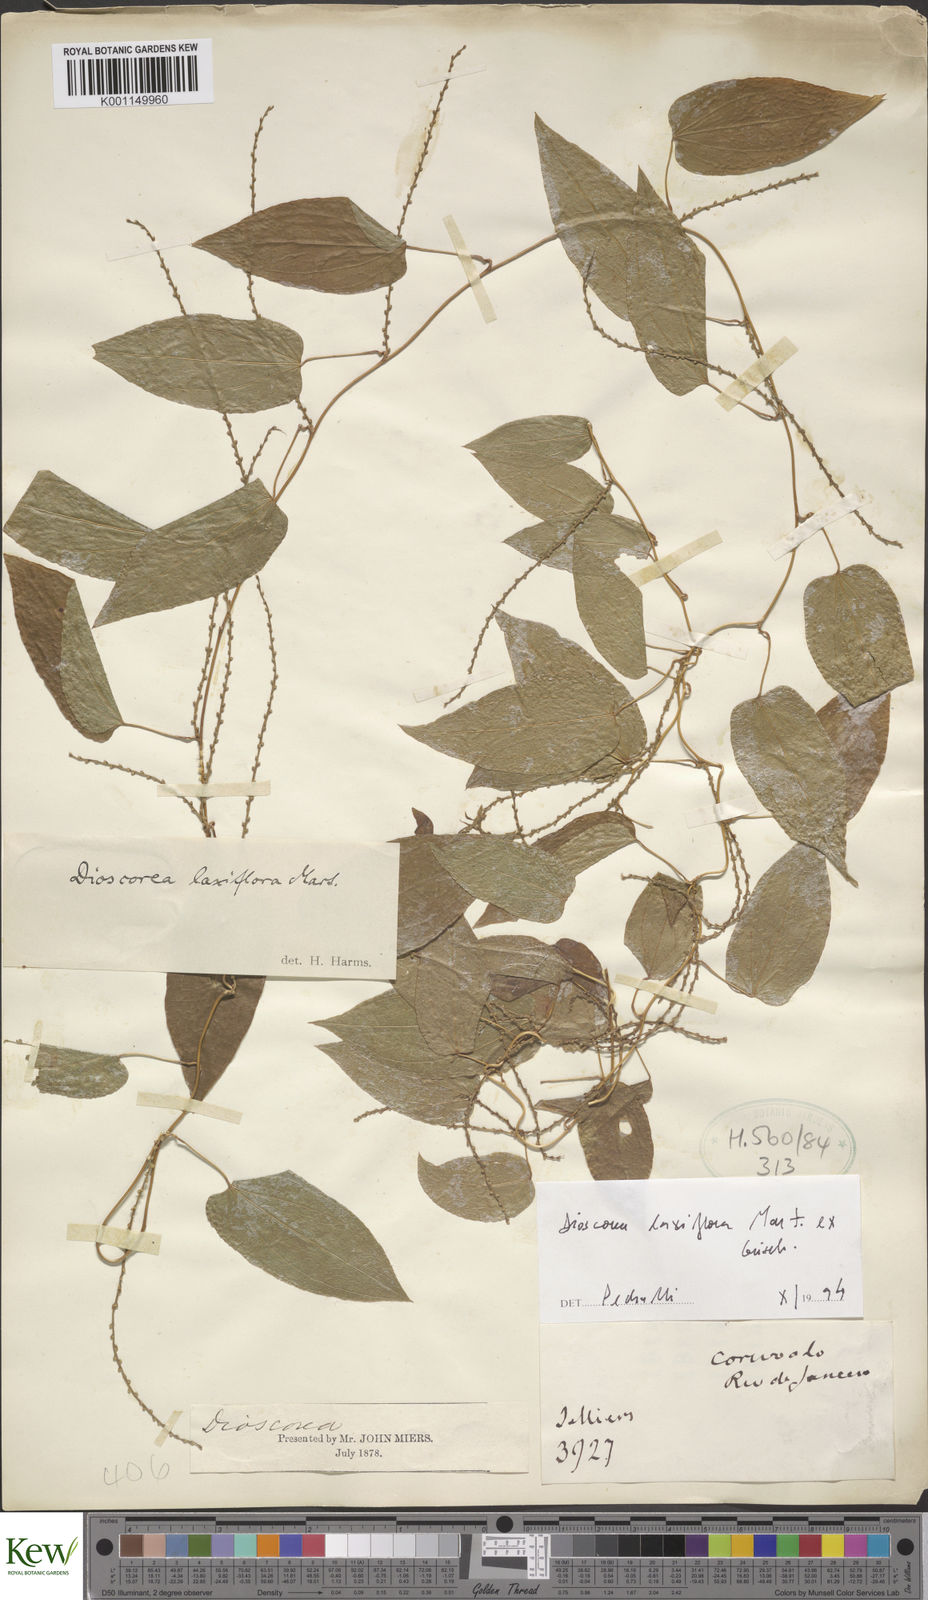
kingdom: Plantae
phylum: Tracheophyta
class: Liliopsida
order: Dioscoreales
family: Dioscoreaceae
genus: Dioscorea
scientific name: Dioscorea hassleriana
